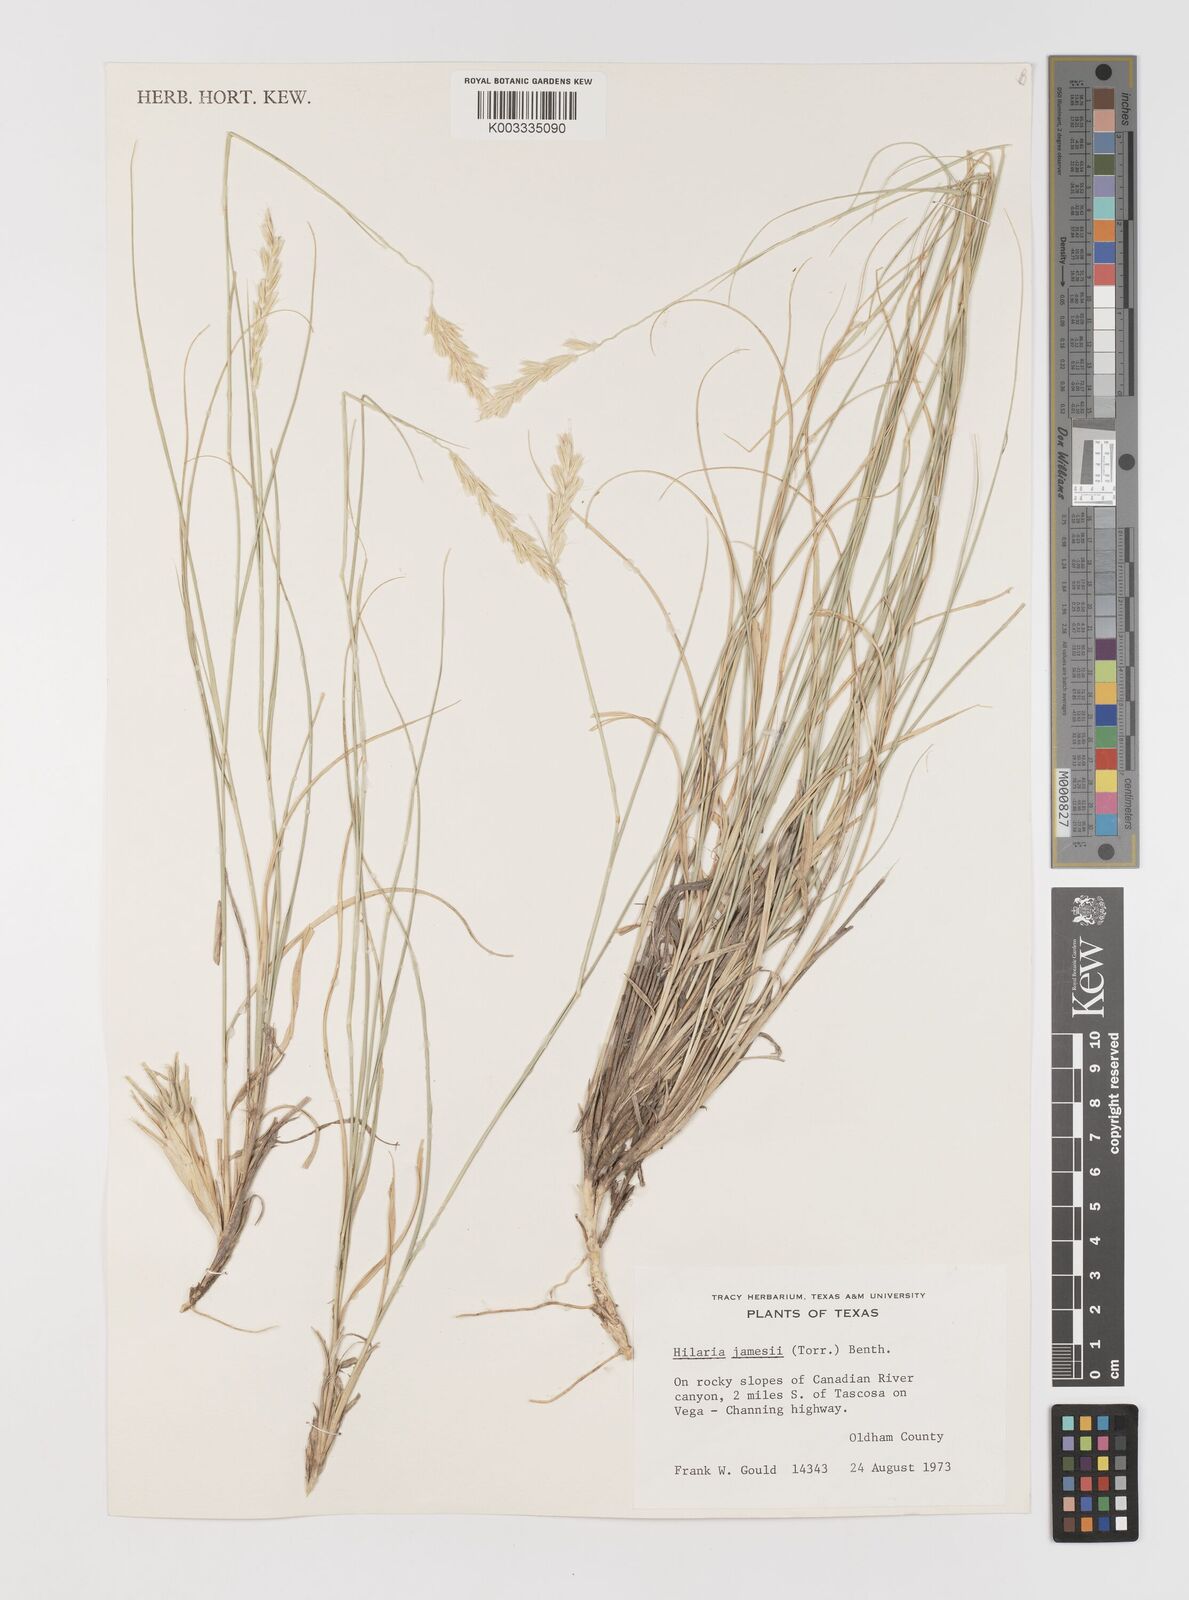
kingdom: Plantae
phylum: Tracheophyta
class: Liliopsida
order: Poales
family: Poaceae
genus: Hilaria
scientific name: Hilaria jamesii
